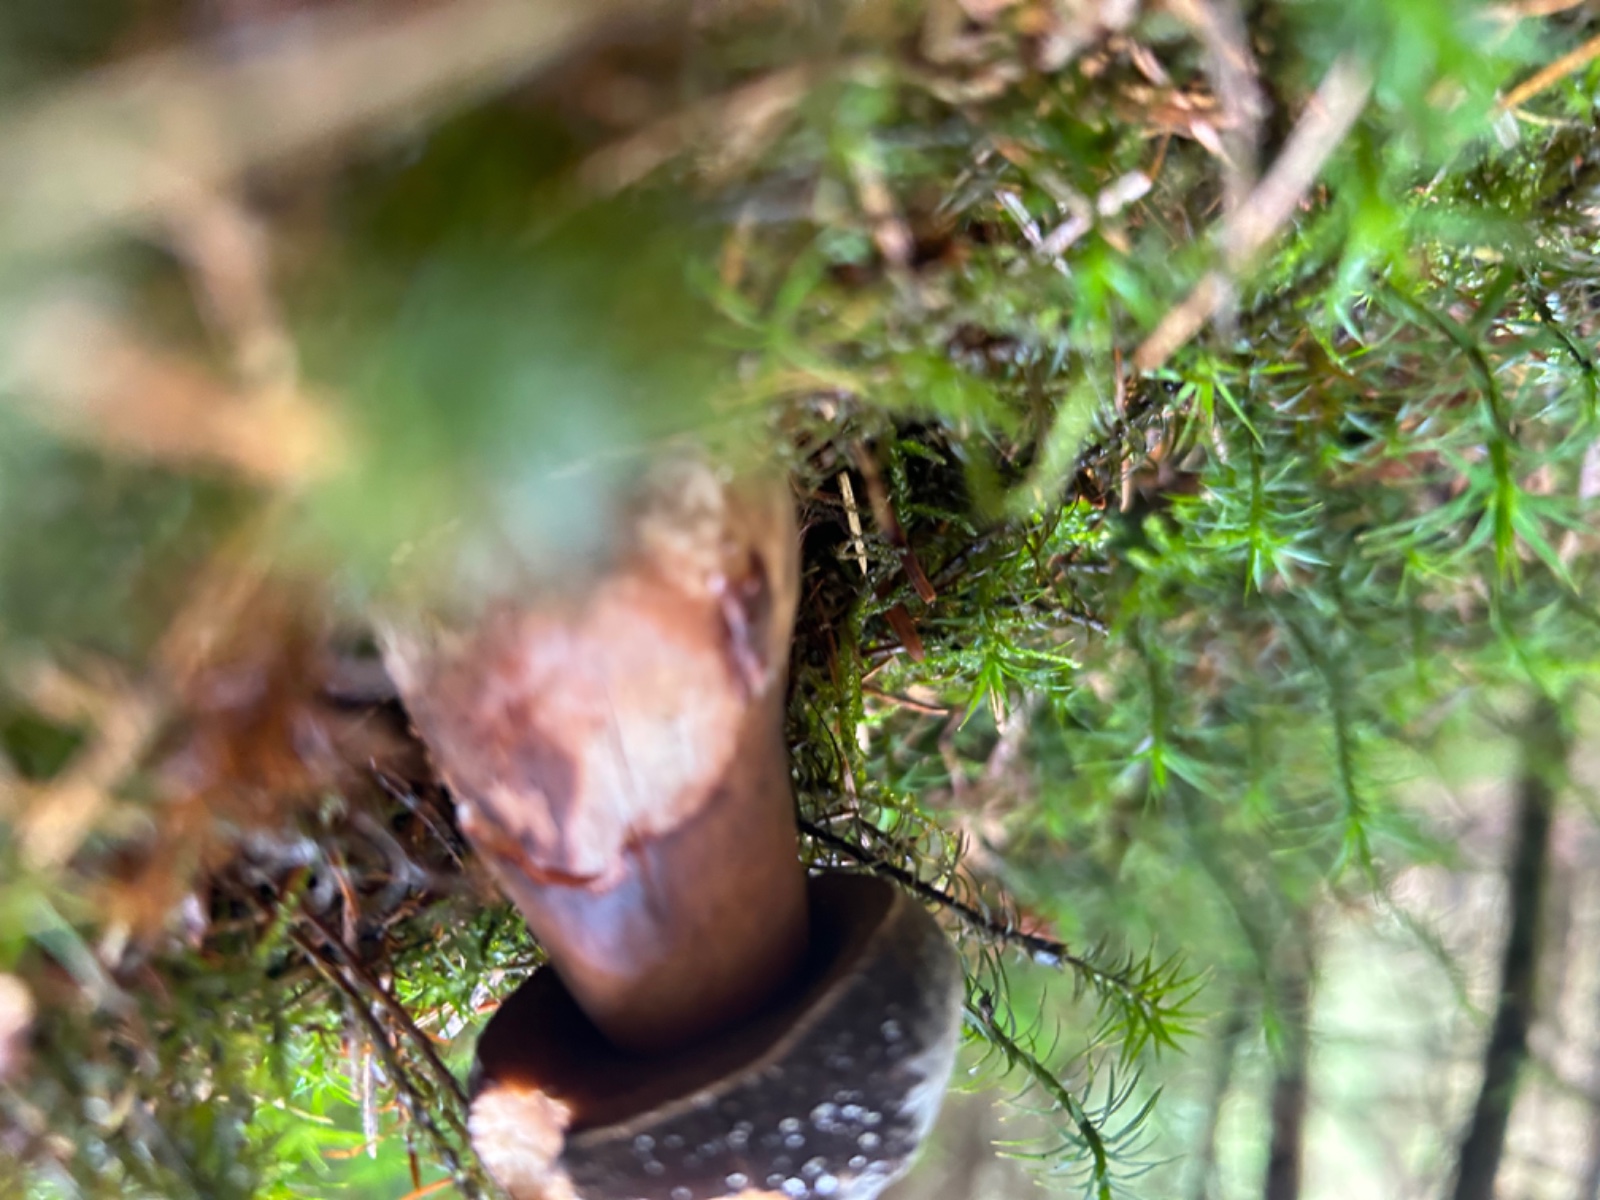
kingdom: Fungi
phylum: Basidiomycota
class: Agaricomycetes
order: Boletales
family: Boletaceae
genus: Imleria
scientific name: Imleria badia
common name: brunstokket rørhat
